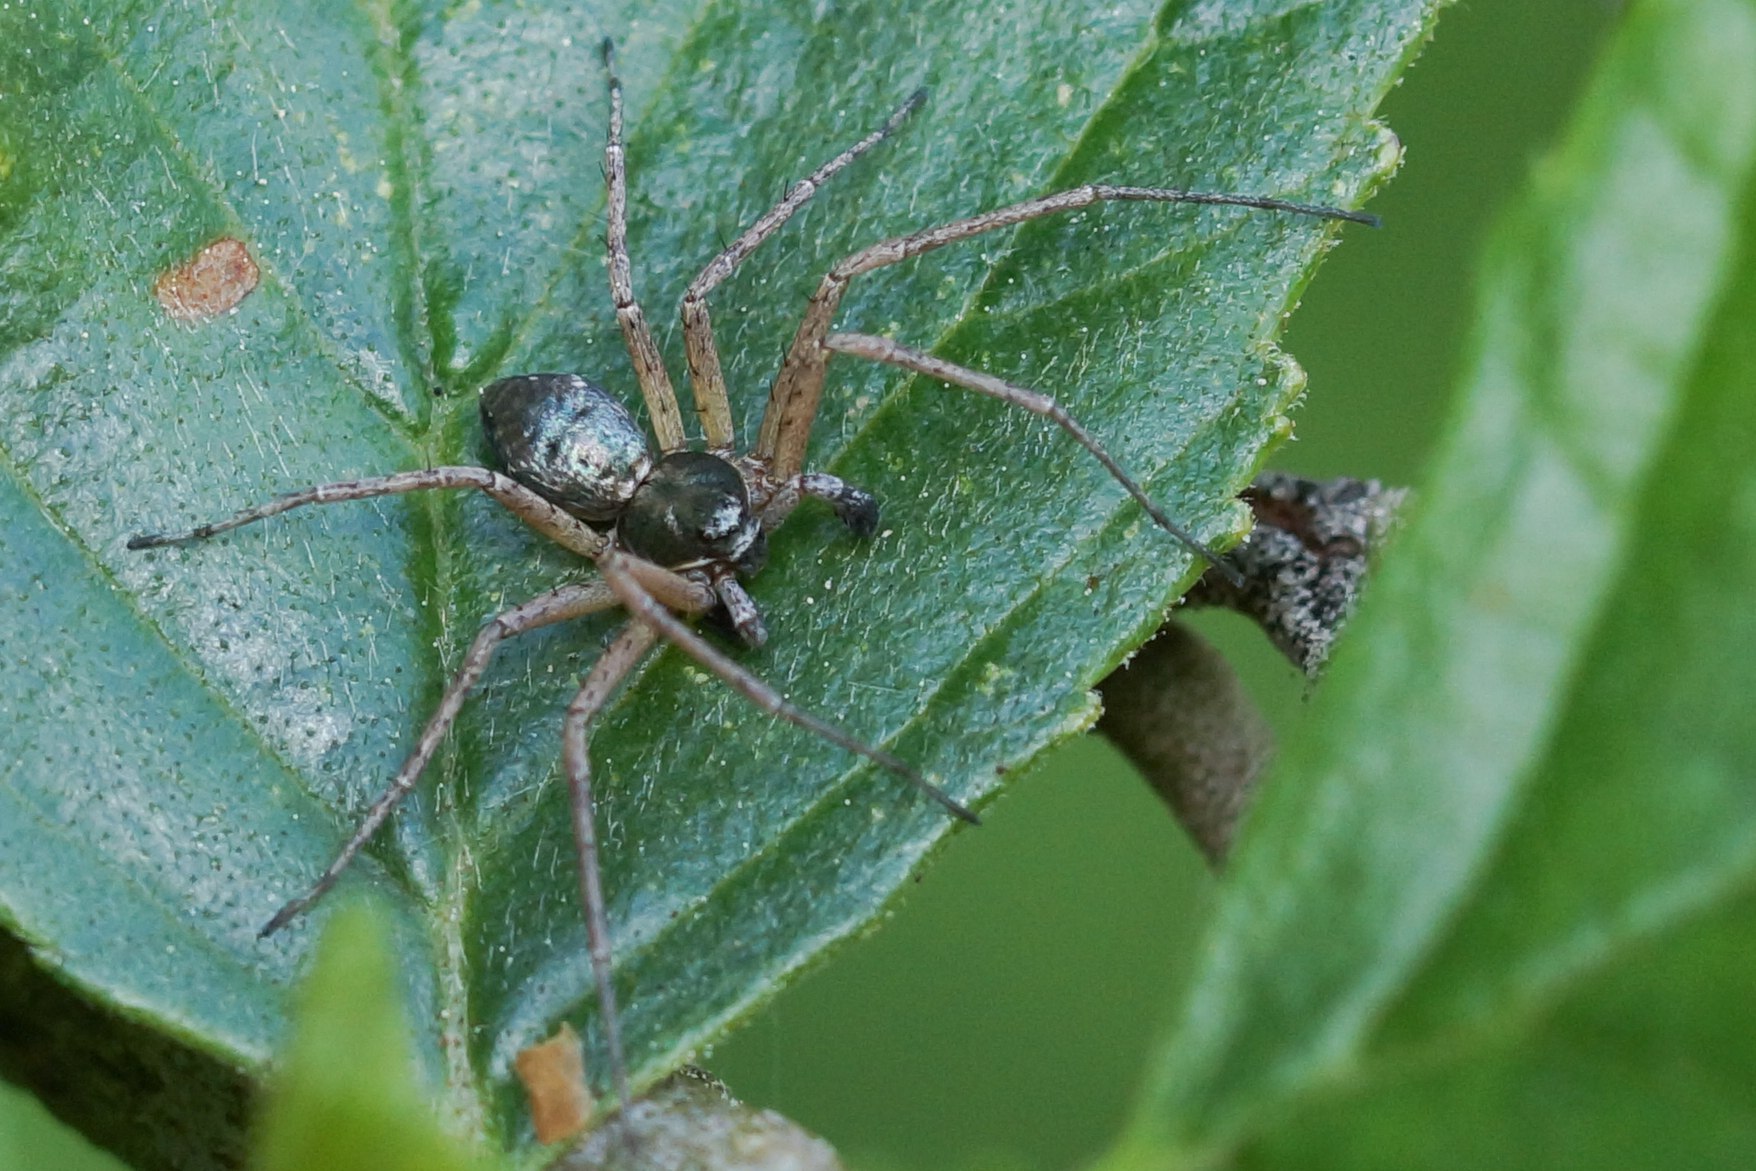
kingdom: Animalia
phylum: Arthropoda
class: Arachnida
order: Araneae
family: Philodromidae
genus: Philodromus
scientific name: Philodromus
